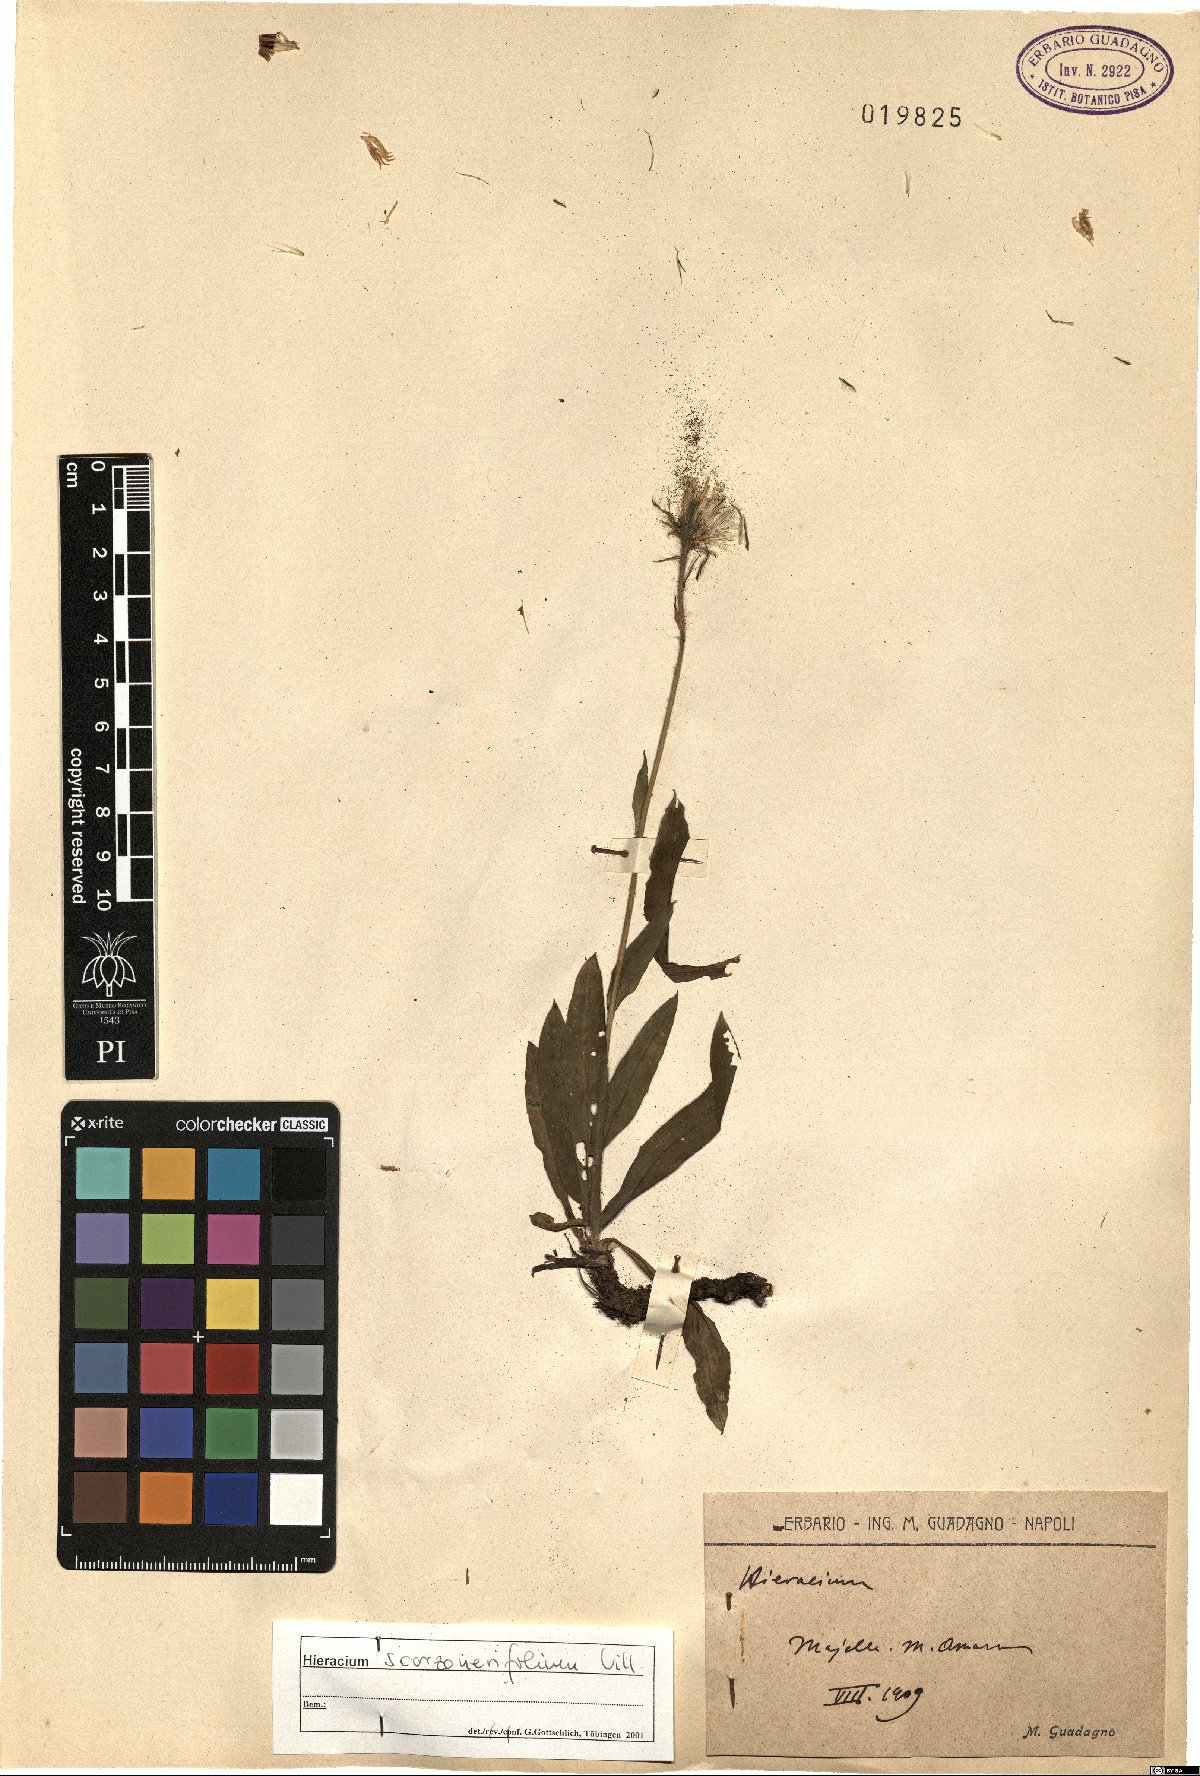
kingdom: Plantae
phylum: Tracheophyta
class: Magnoliopsida
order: Asterales
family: Asteraceae
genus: Hieracium
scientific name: Hieracium scorzonerifolium
